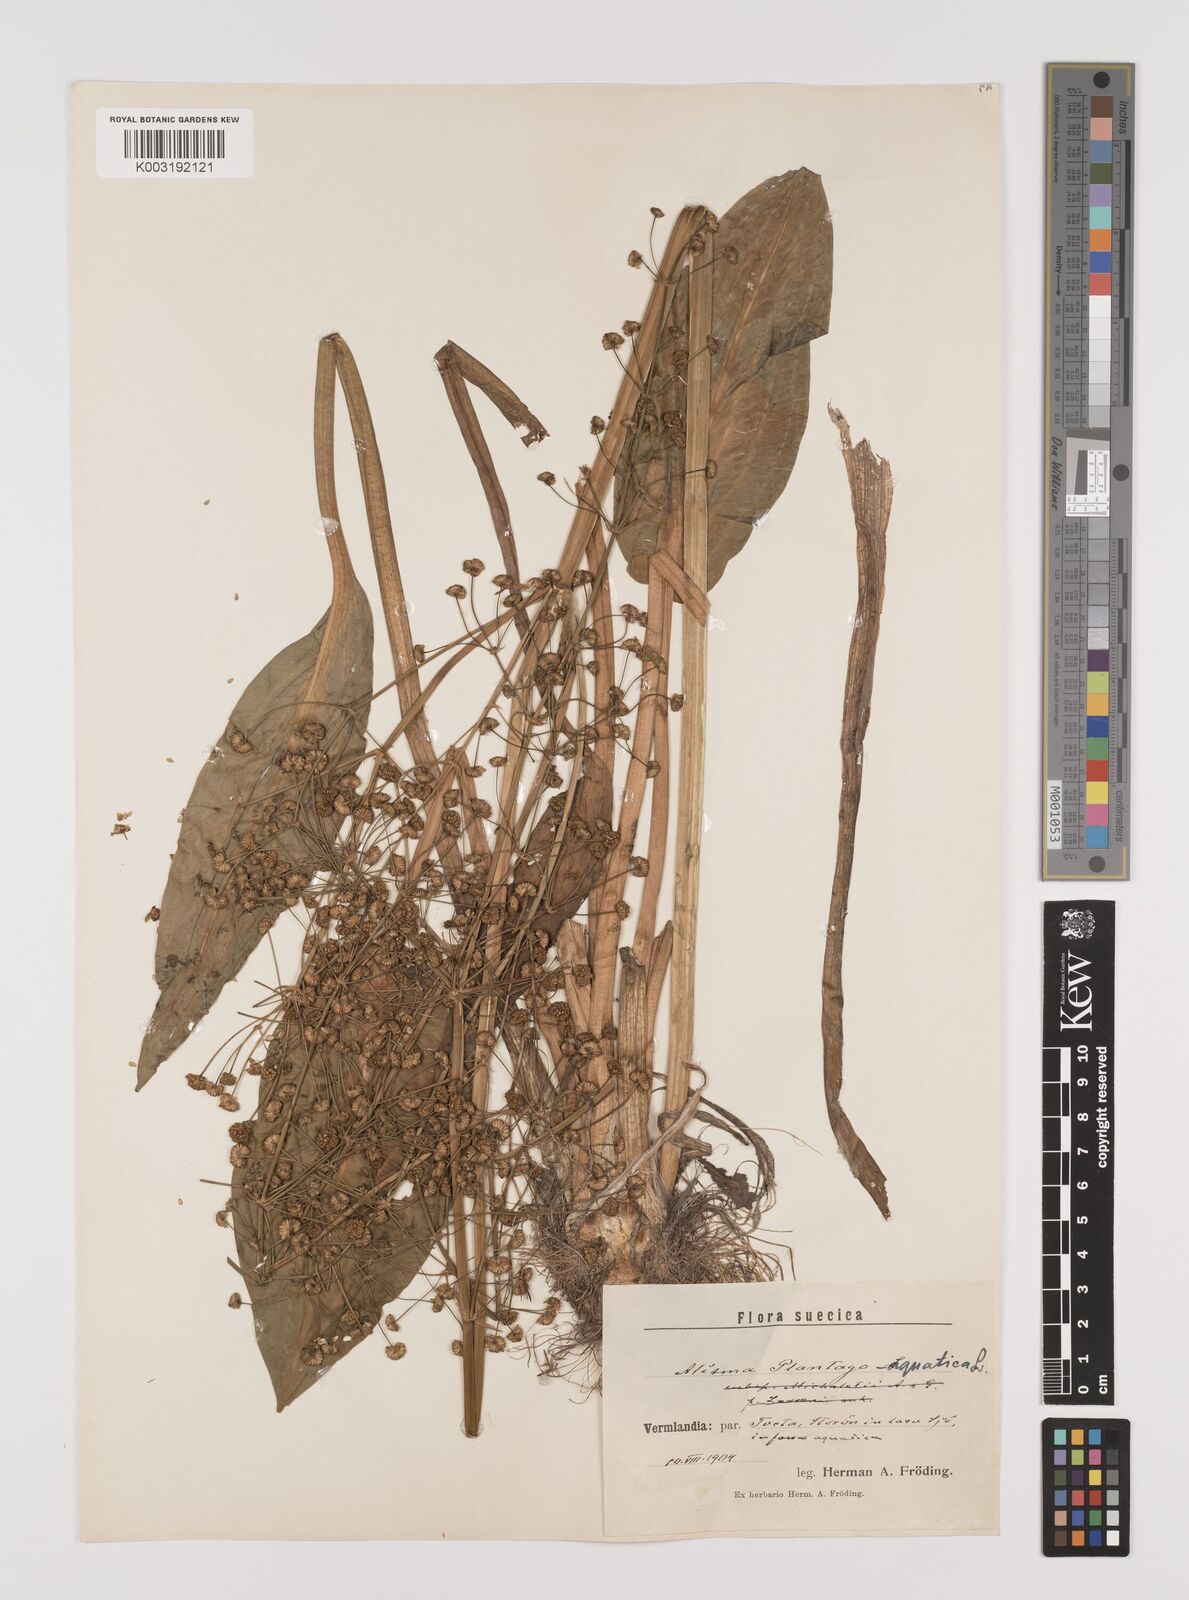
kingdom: Plantae
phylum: Tracheophyta
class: Liliopsida
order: Alismatales
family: Alismataceae
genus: Alisma
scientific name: Alisma plantago-aquatica
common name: Water-plantain
